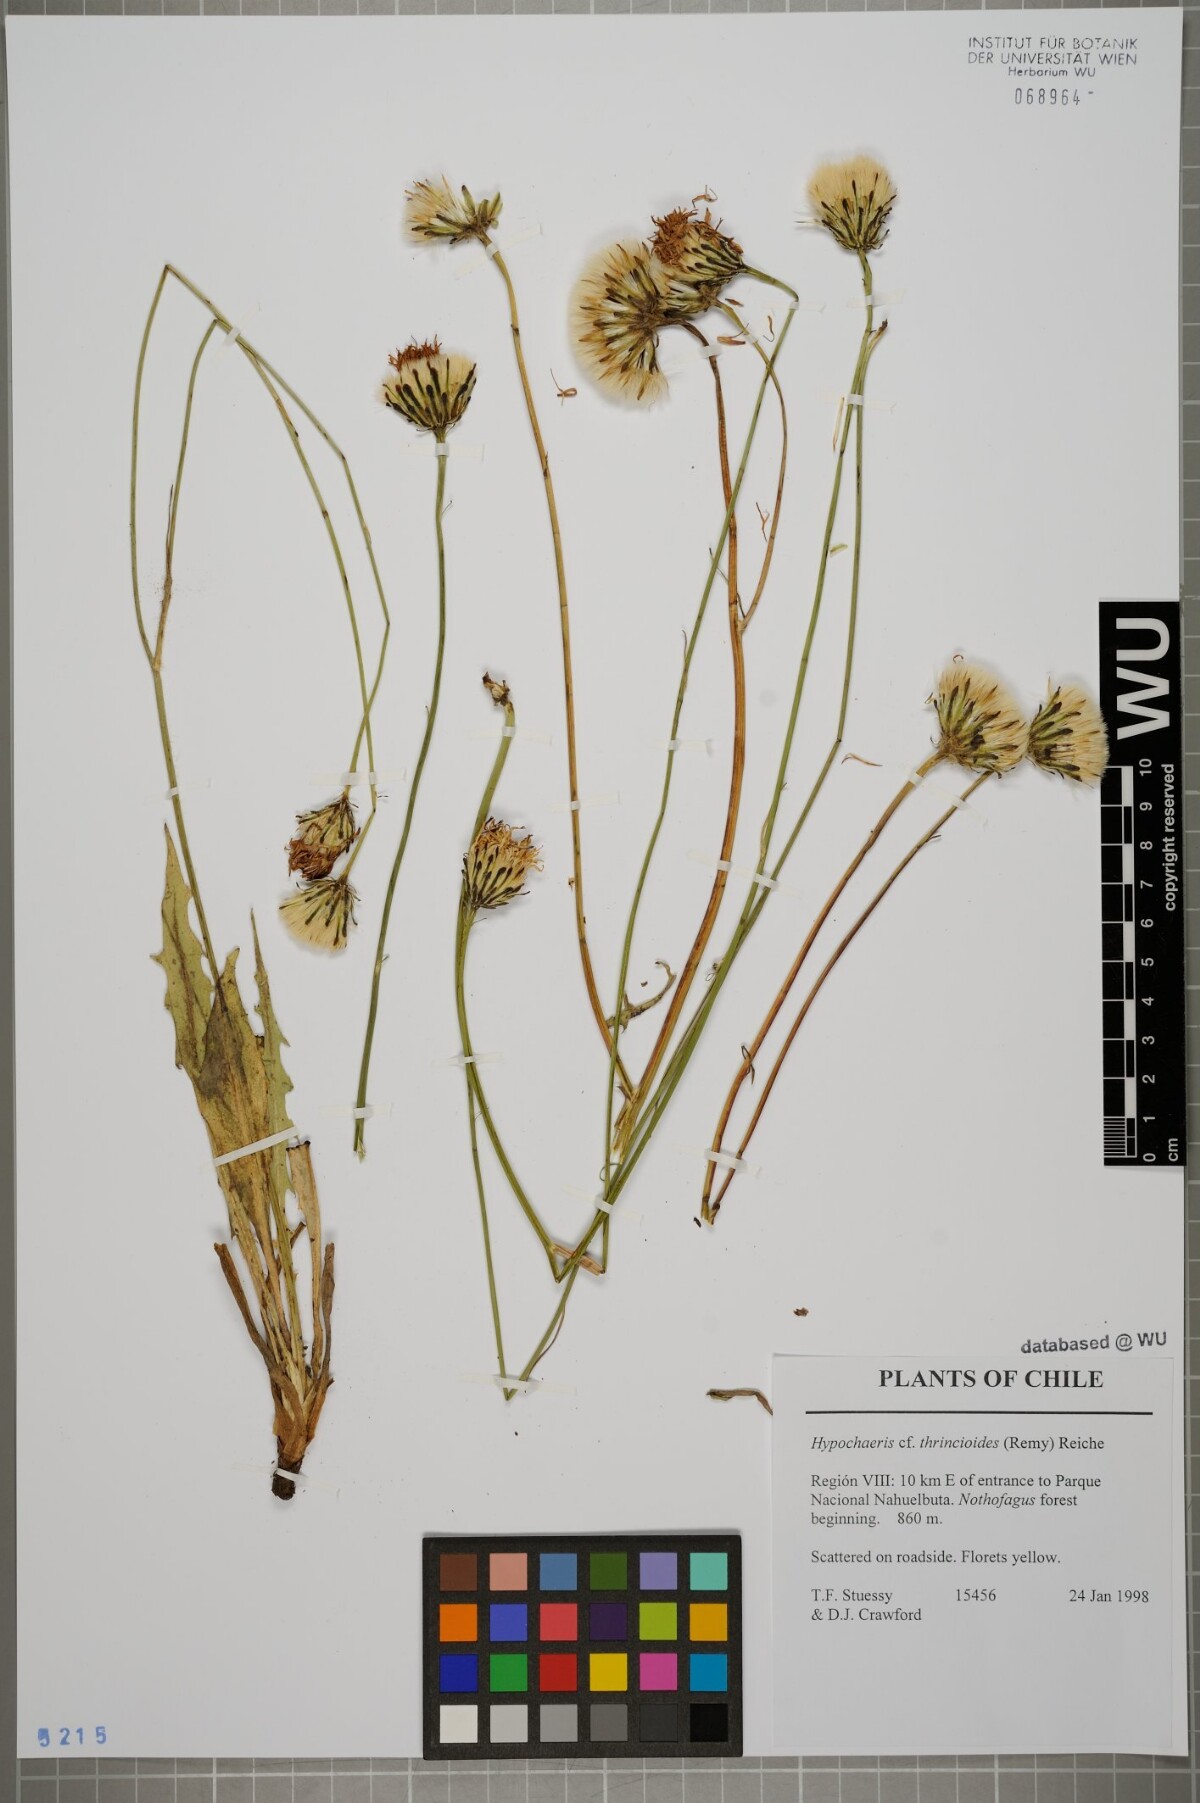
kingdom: Plantae
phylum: Tracheophyta
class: Magnoliopsida
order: Asterales
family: Asteraceae
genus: Hypochaeris
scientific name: Hypochaeris apargioides
